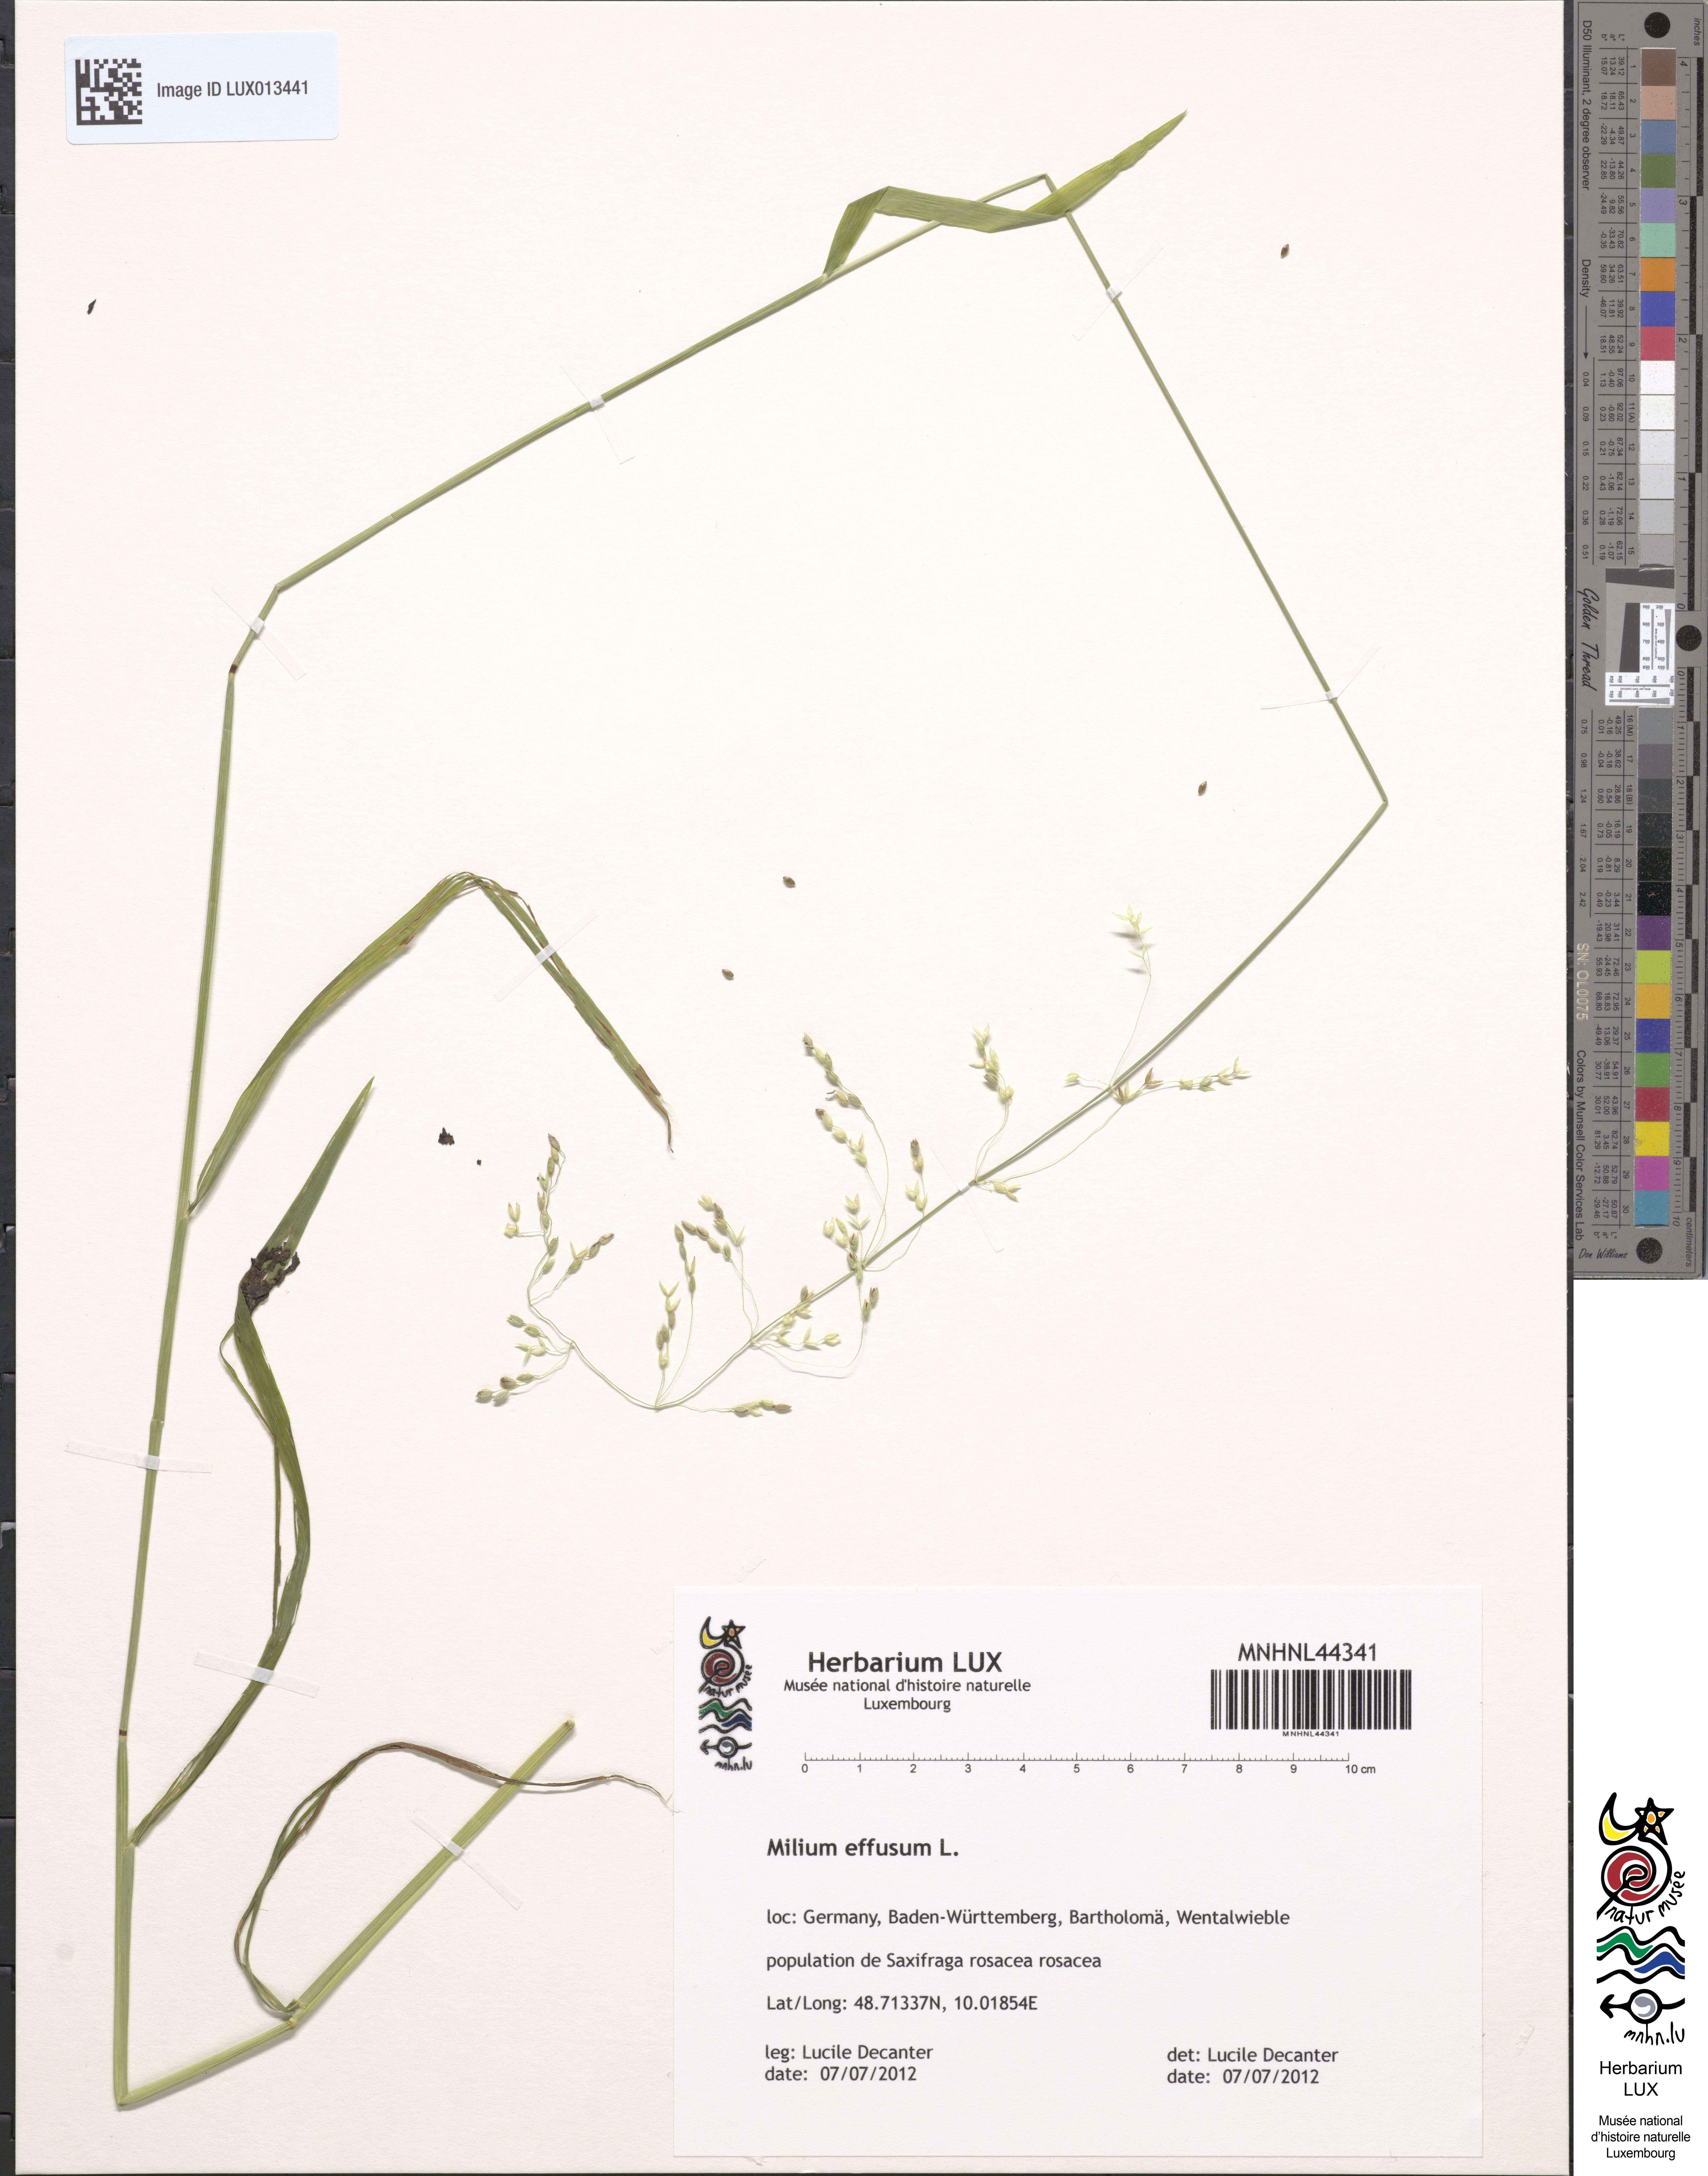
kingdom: Plantae
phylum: Tracheophyta
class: Liliopsida
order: Poales
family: Poaceae
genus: Milium
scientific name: Milium effusum
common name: Wood millet
